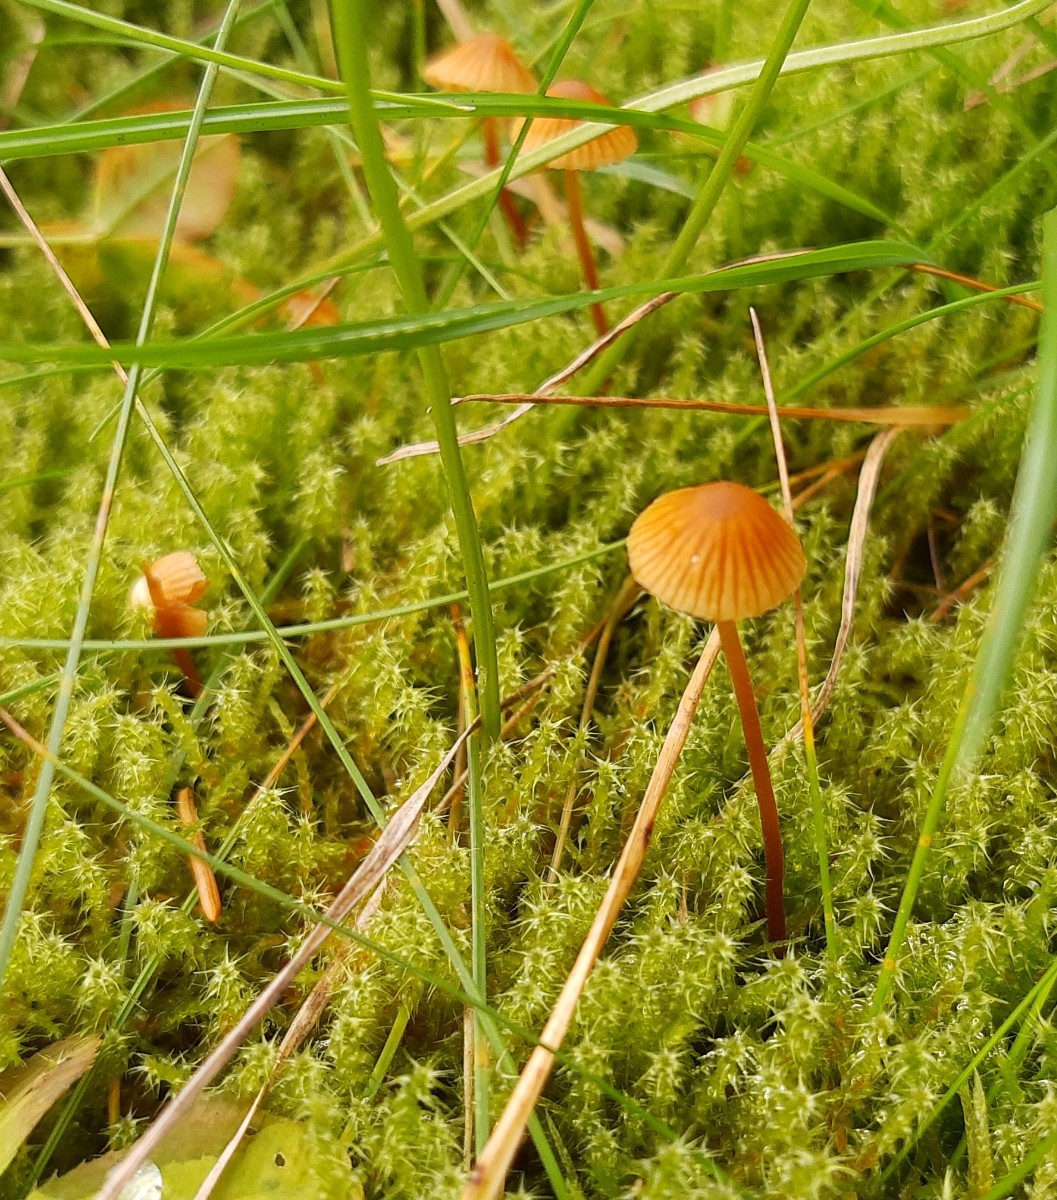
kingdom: Fungi
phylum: Basidiomycota
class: Agaricomycetes
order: Agaricales
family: Hymenogastraceae
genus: Galerina
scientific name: Galerina
